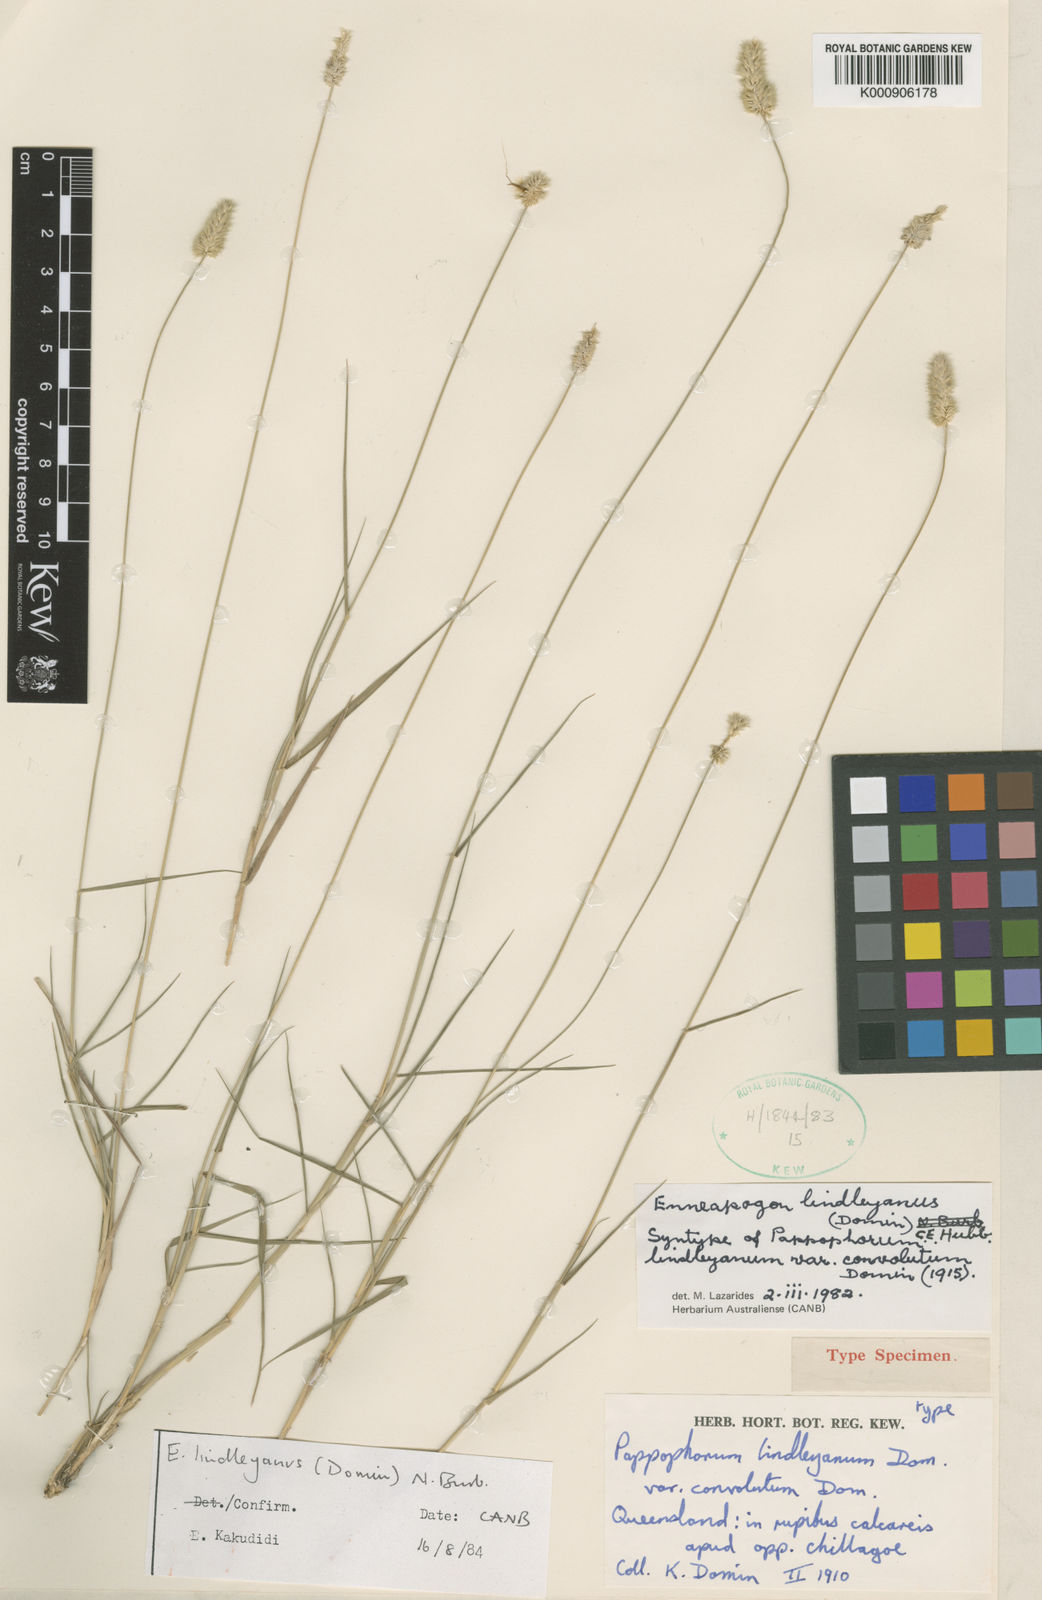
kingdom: Plantae
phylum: Tracheophyta
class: Liliopsida
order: Poales
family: Poaceae
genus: Enneapogon
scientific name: Enneapogon lindleyanus
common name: Conetop nineawn
